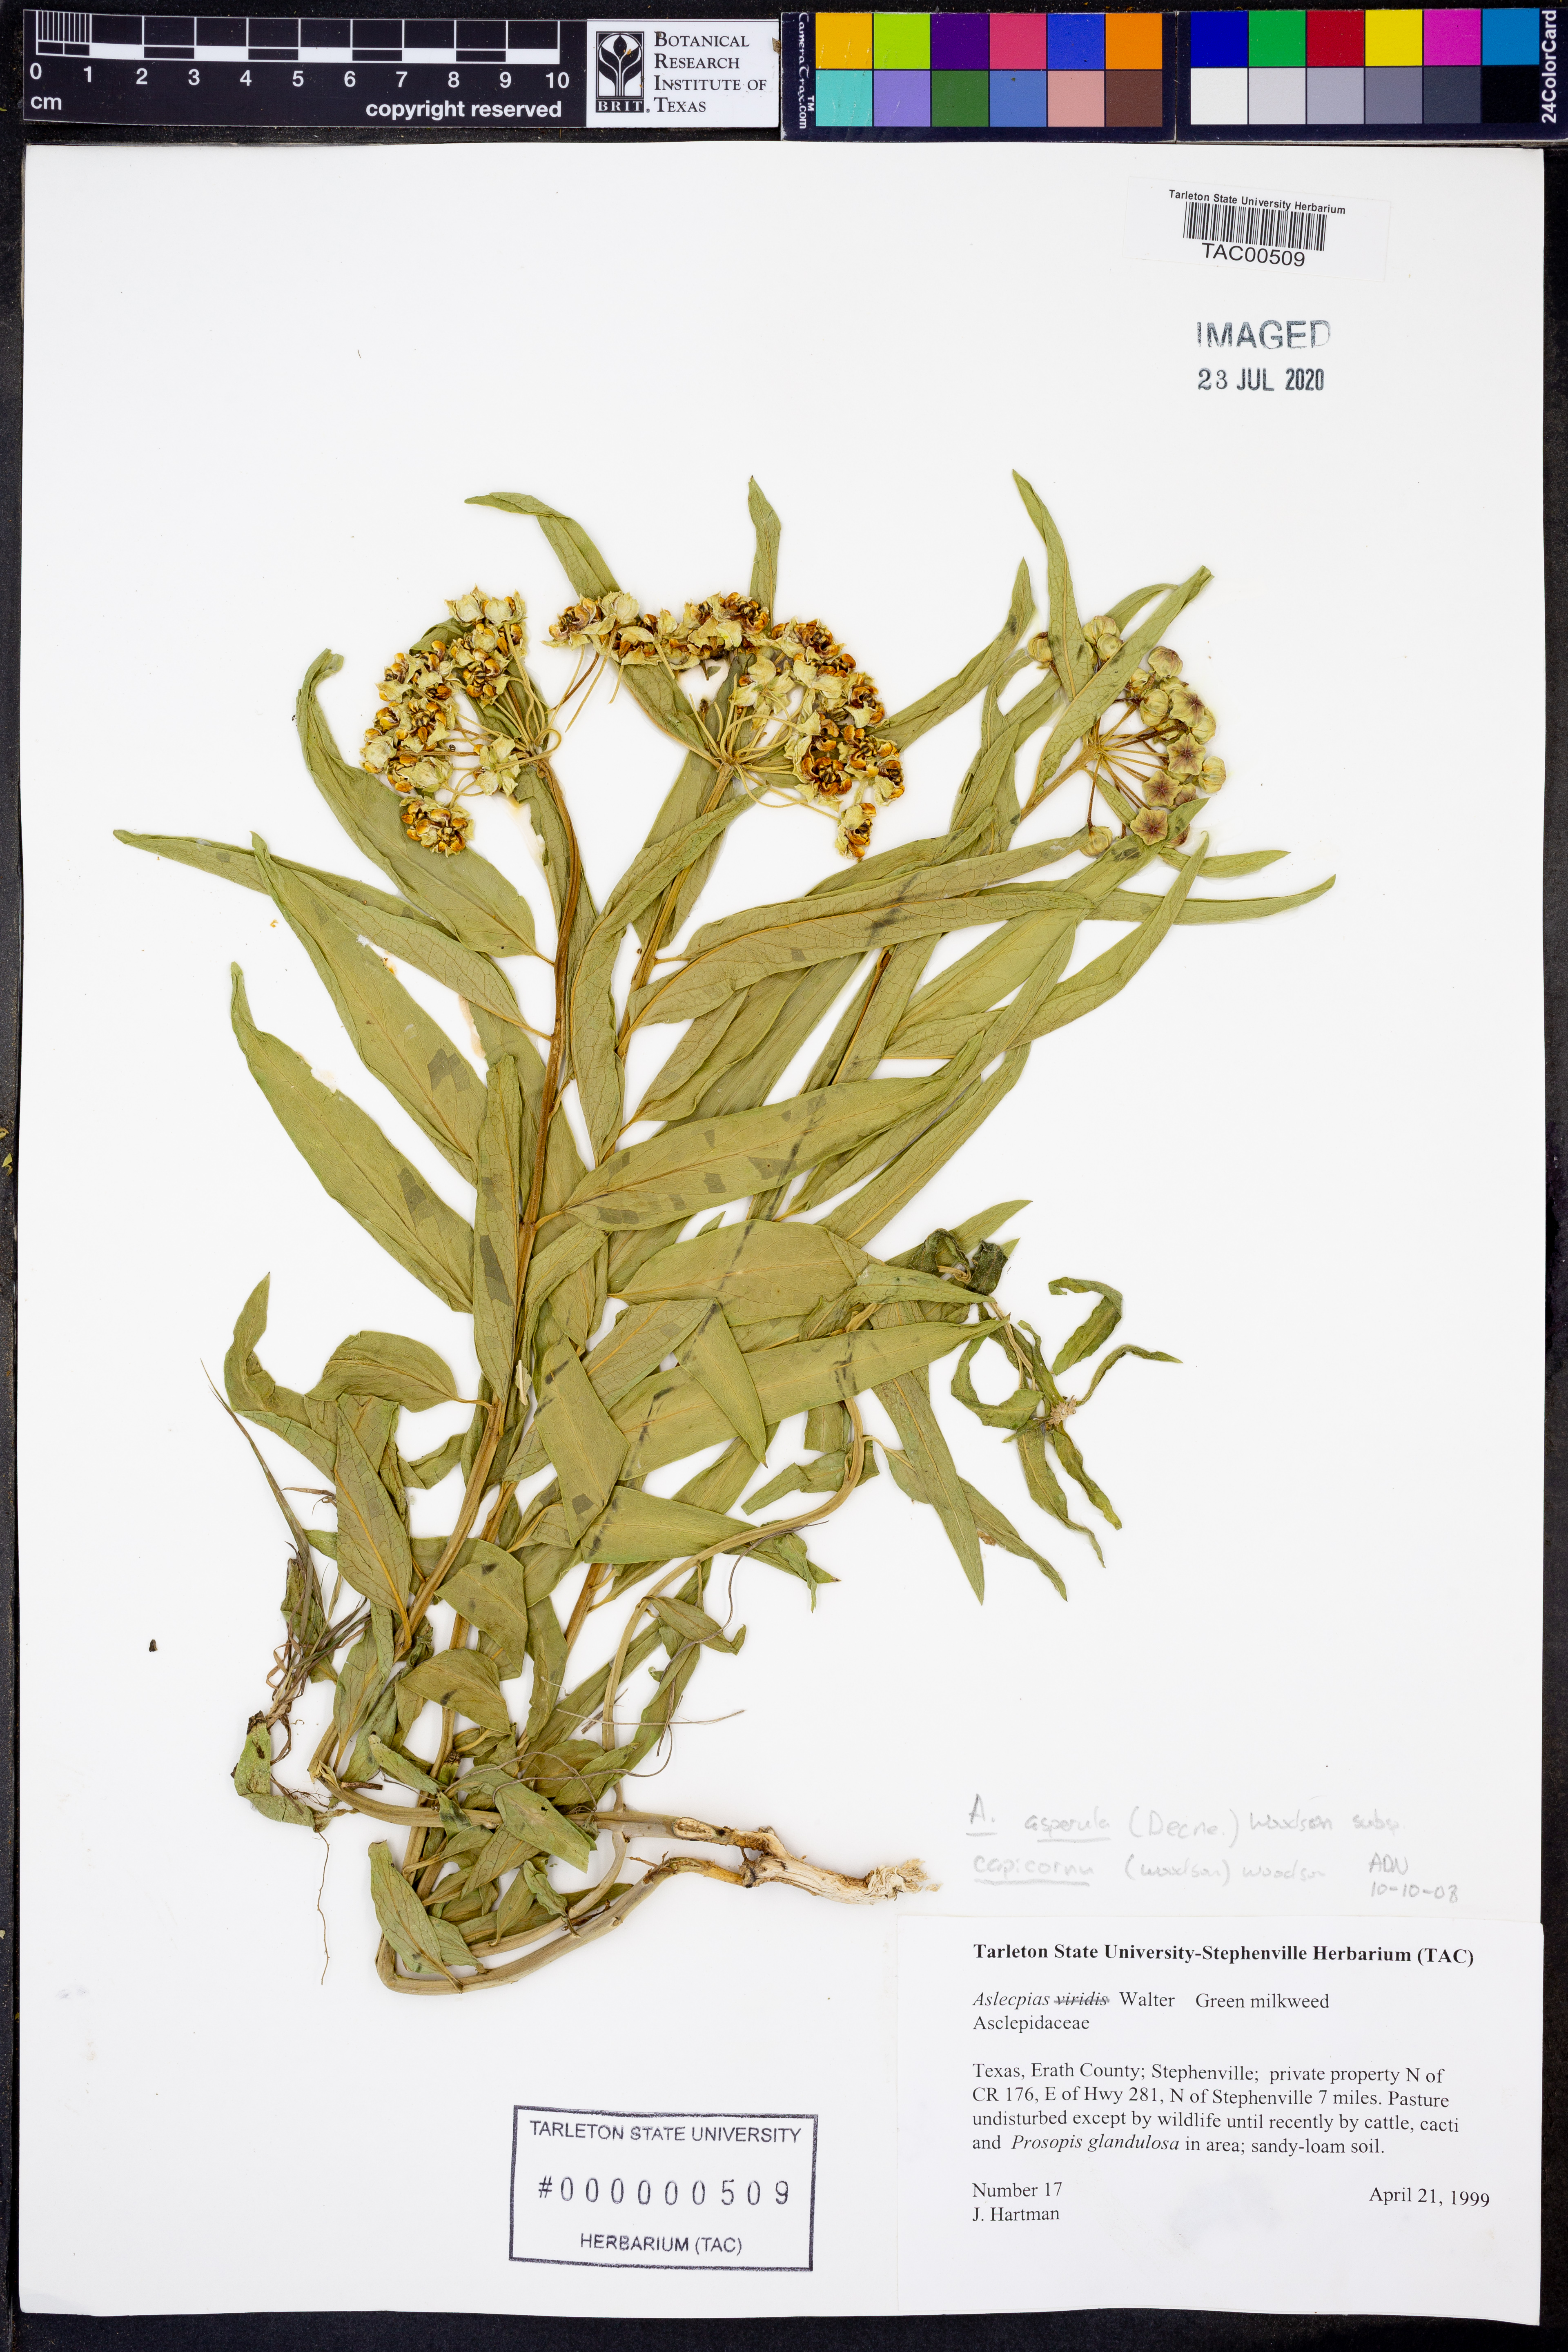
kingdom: Plantae
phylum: Tracheophyta
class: Magnoliopsida
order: Gentianales
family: Apocynaceae
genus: Asclepias
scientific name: Asclepias asperula
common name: Antelope horns
